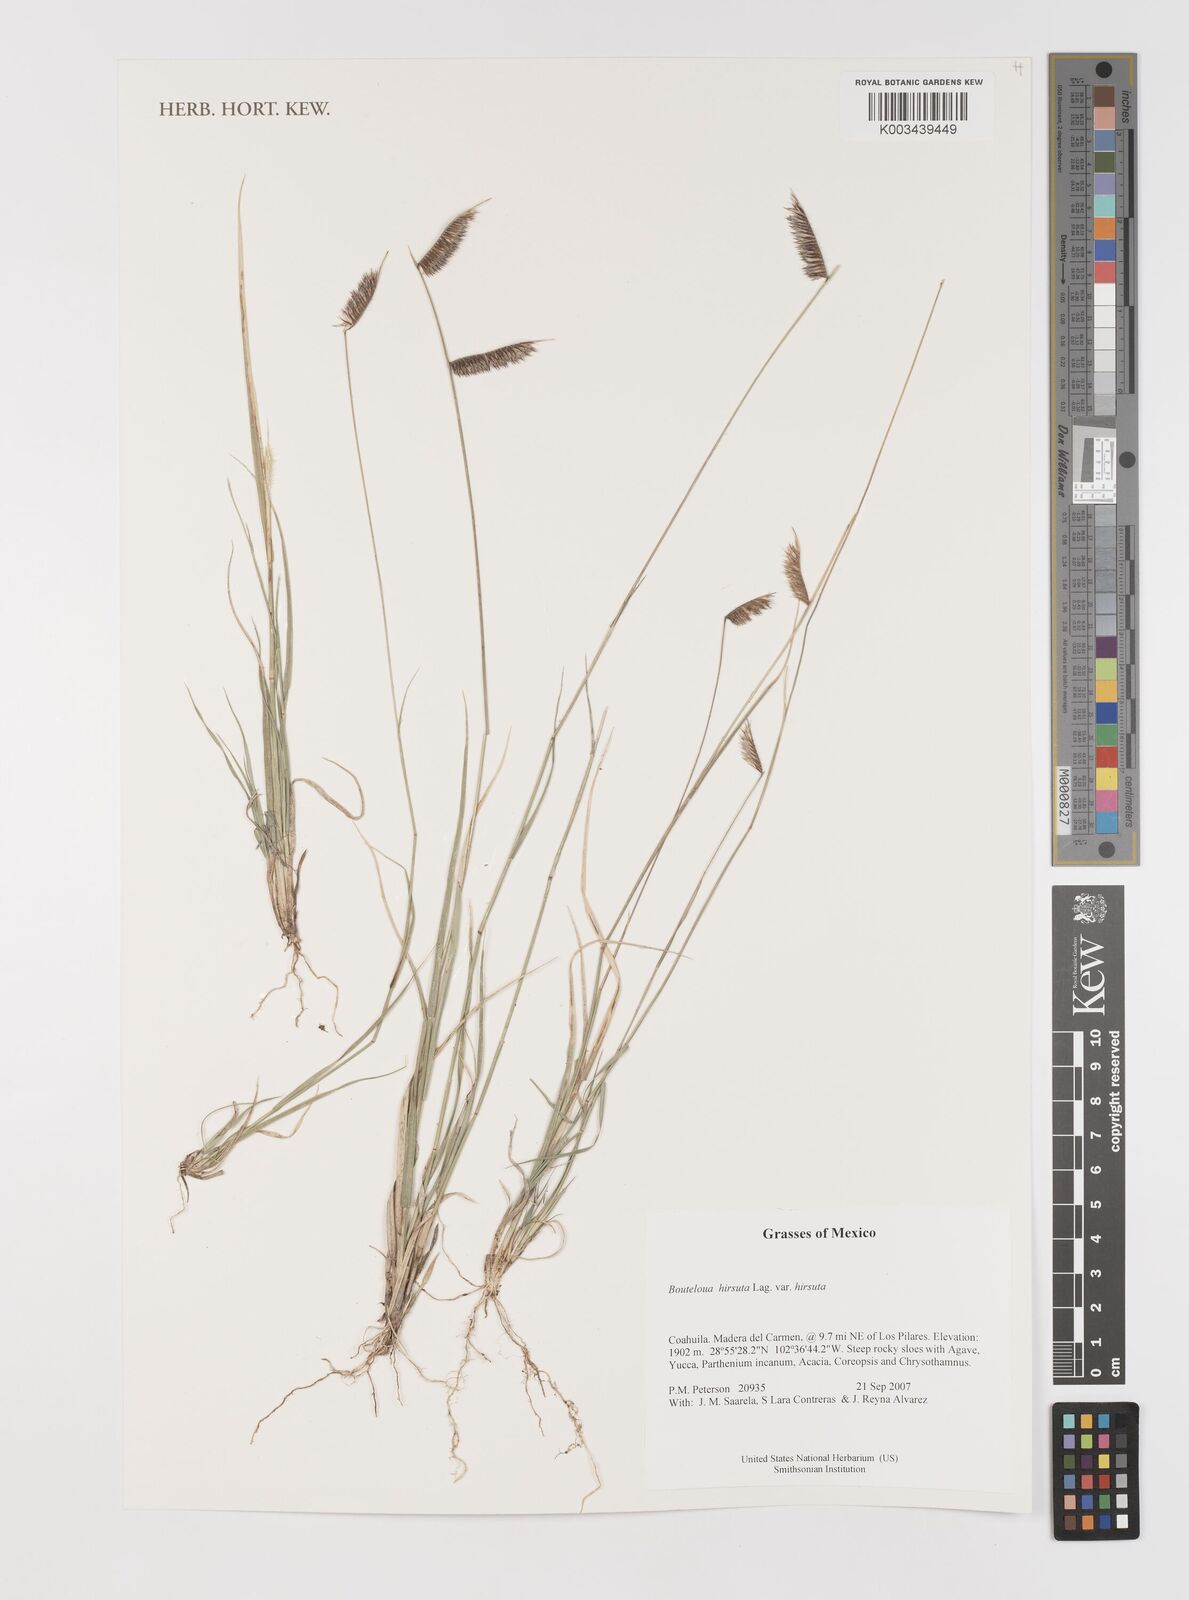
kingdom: Plantae
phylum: Tracheophyta
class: Liliopsida
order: Poales
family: Poaceae
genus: Bouteloua
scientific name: Bouteloua hirsuta
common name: Hairy grama
